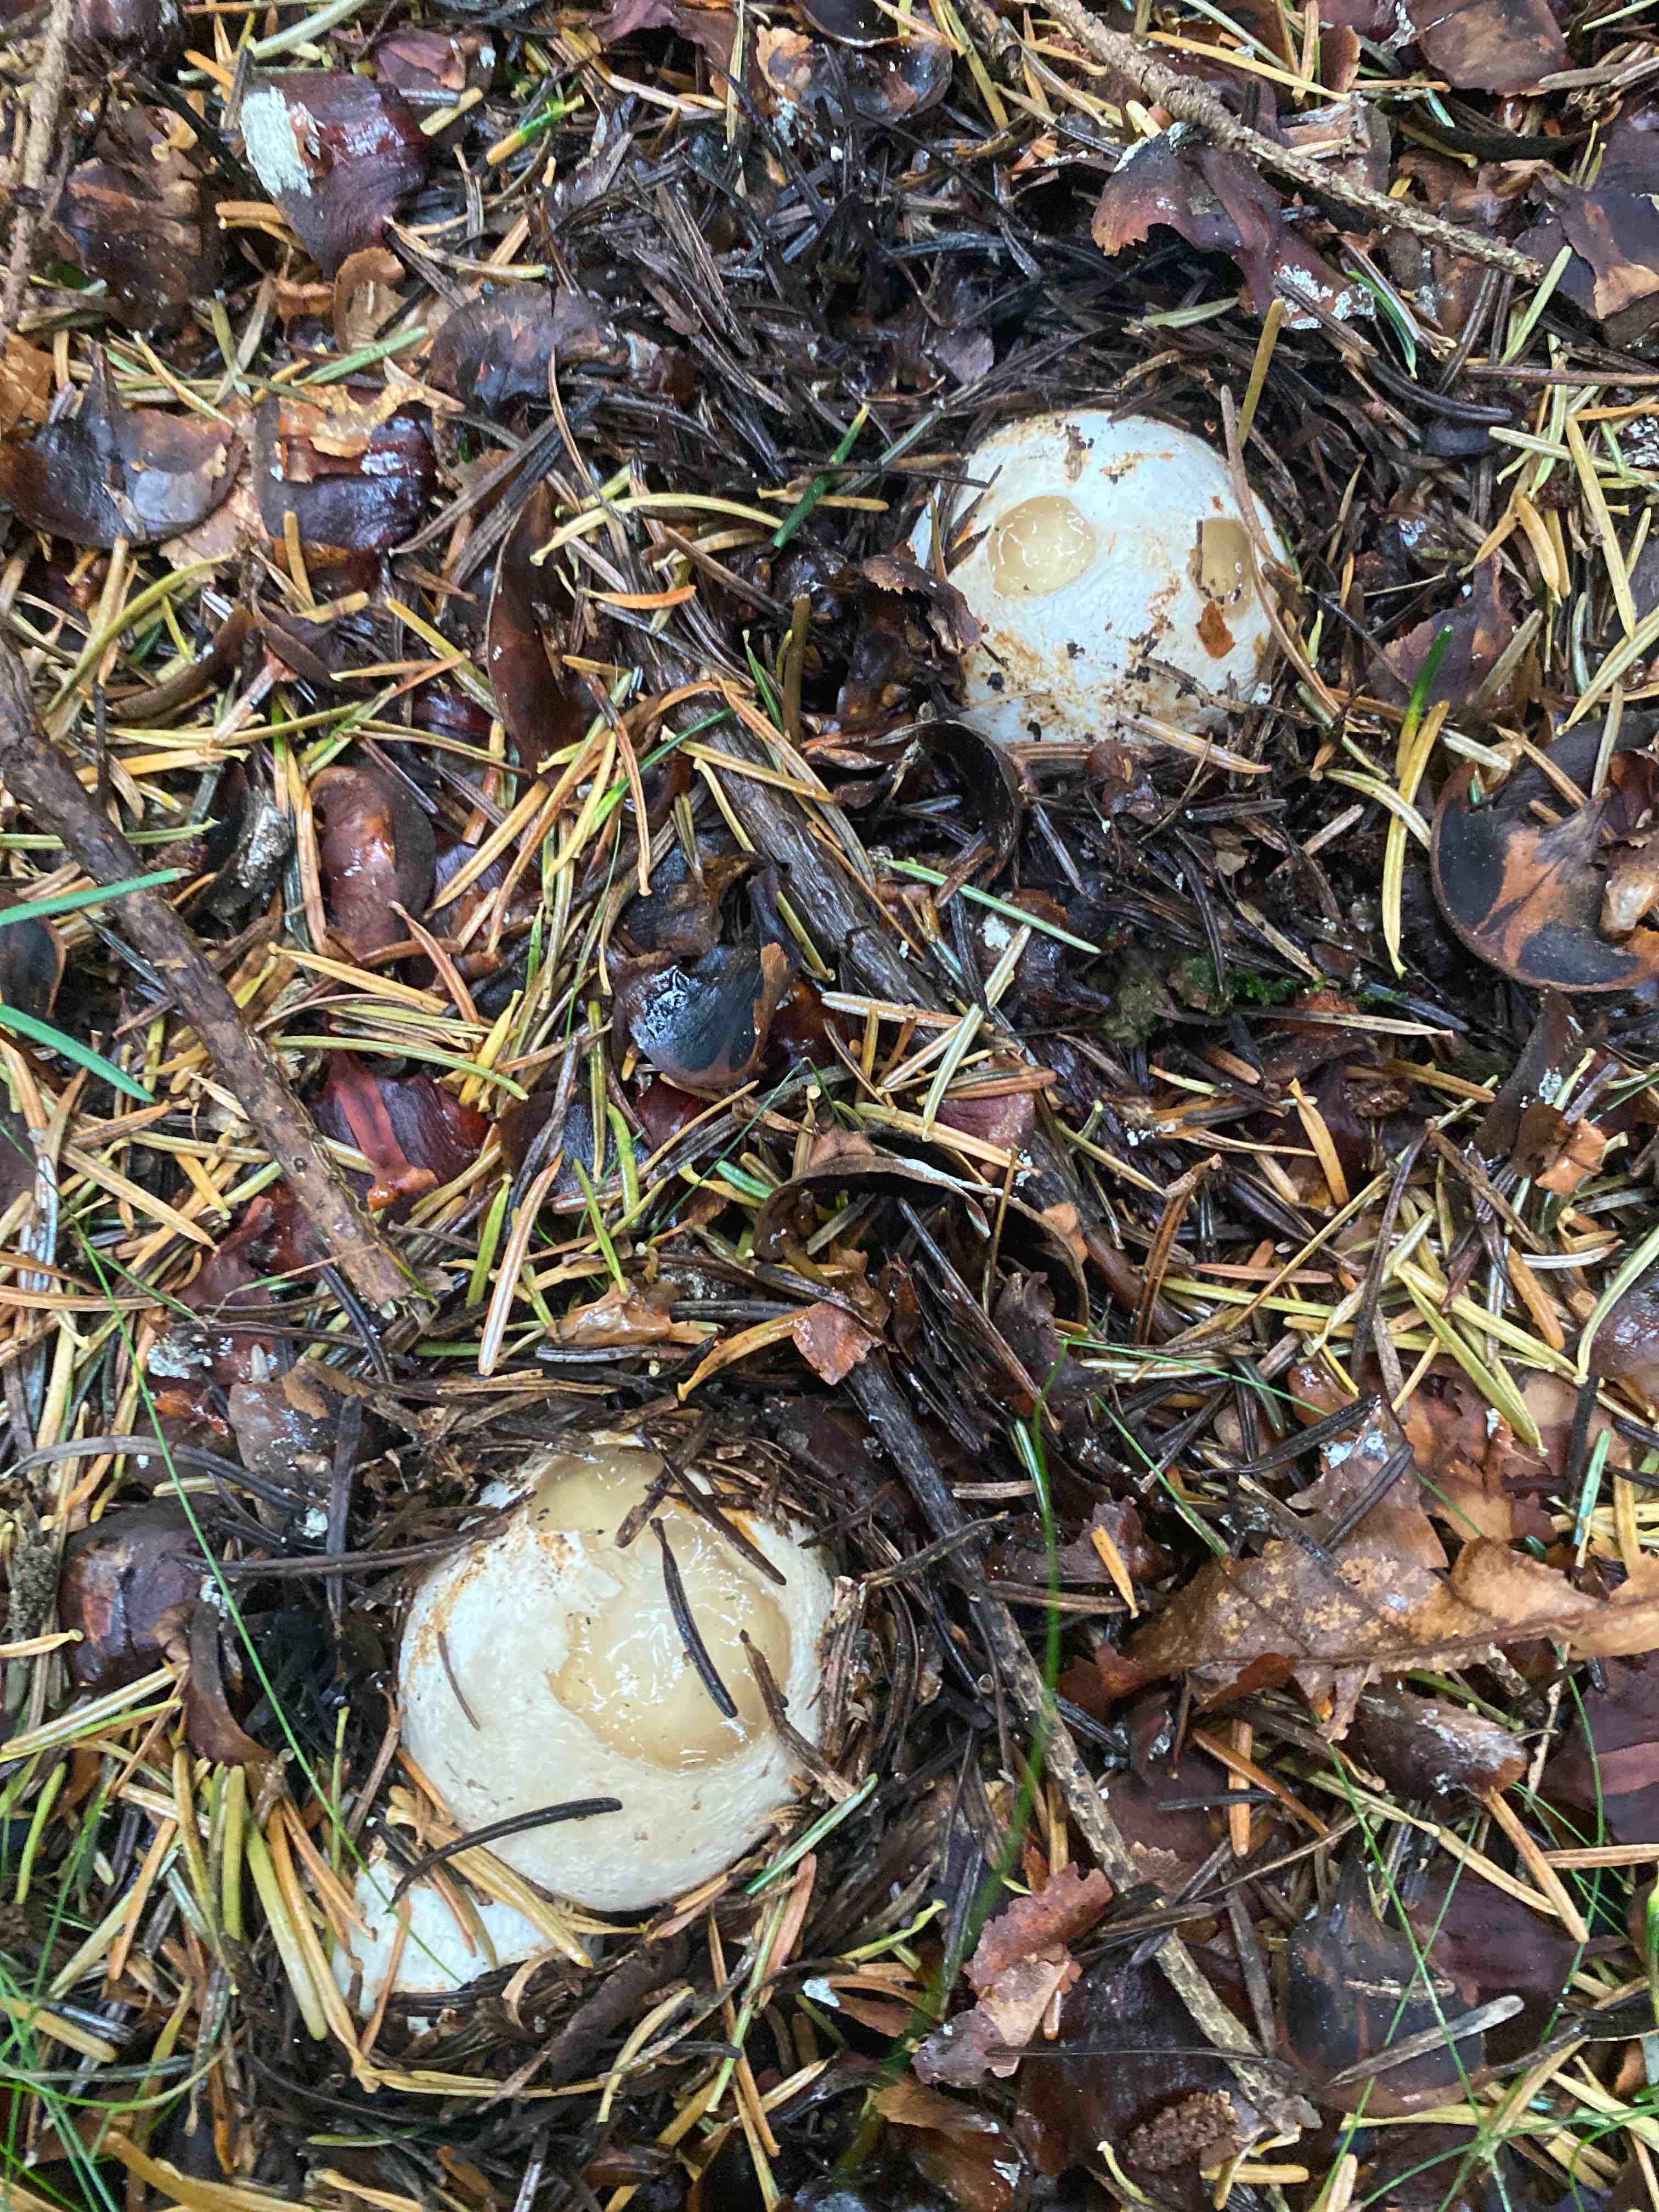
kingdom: Fungi
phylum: Basidiomycota
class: Agaricomycetes
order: Phallales
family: Phallaceae
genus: Phallus
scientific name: Phallus impudicus
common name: almindelig stinksvamp
